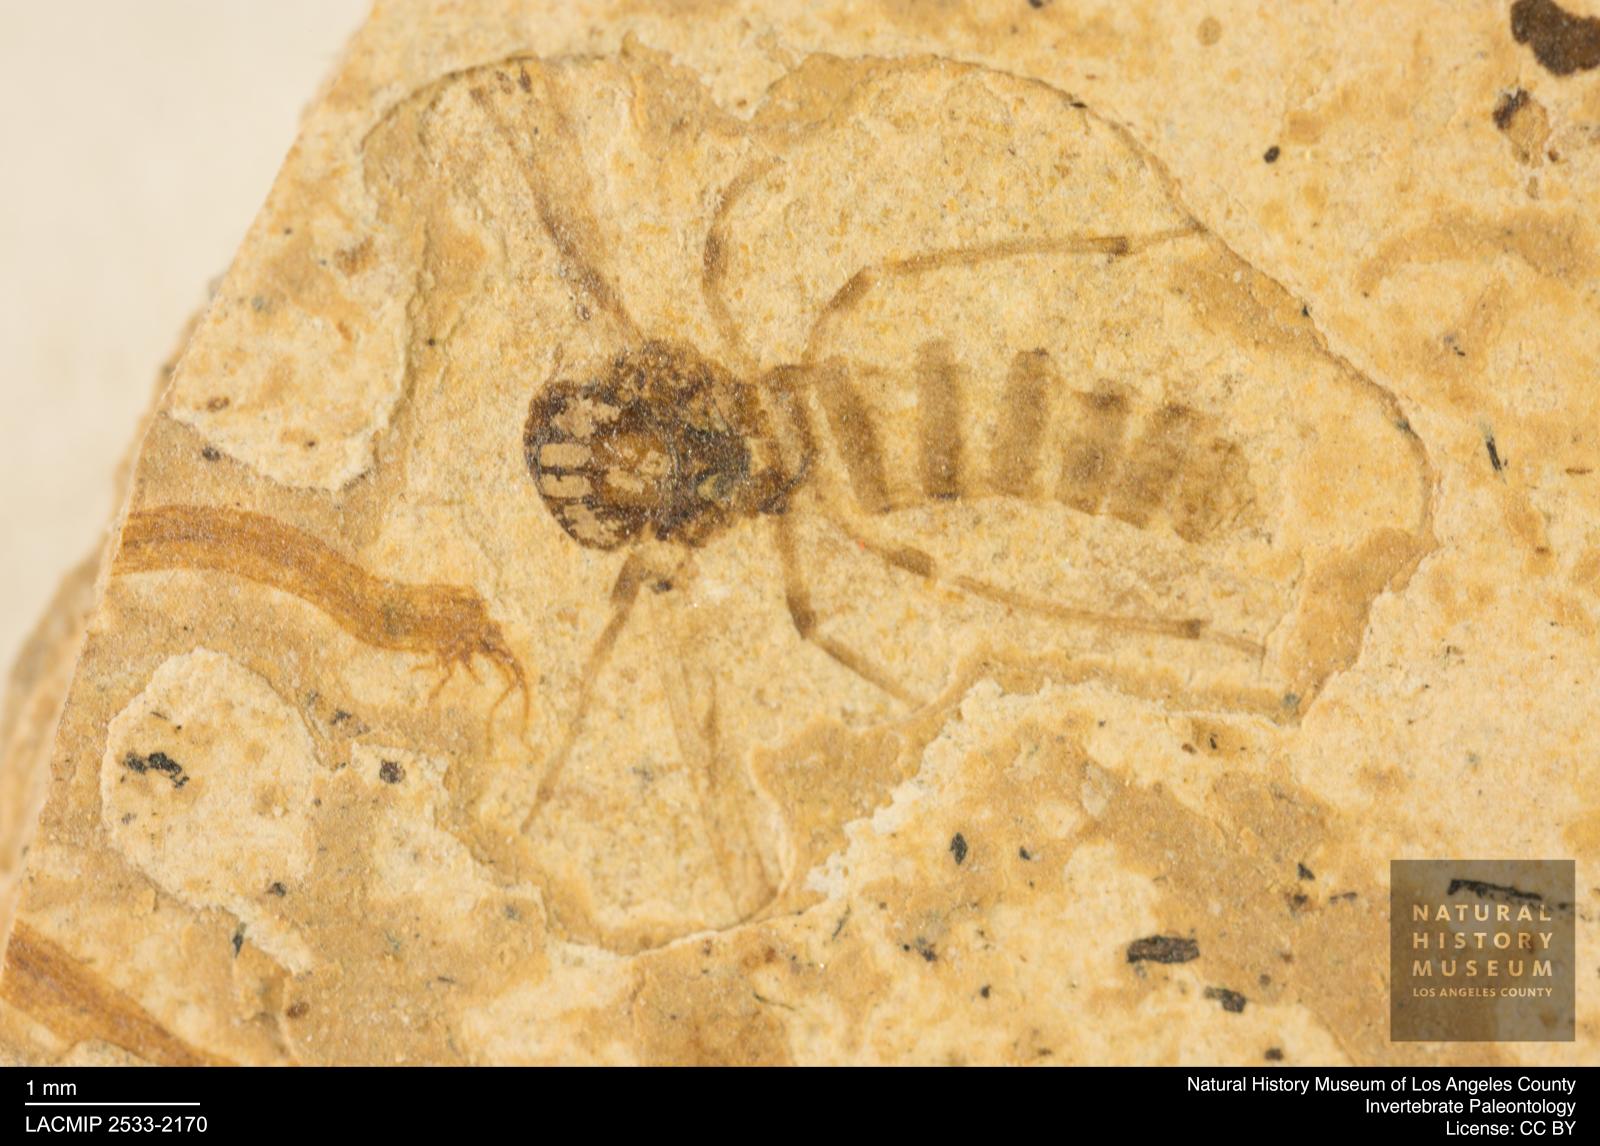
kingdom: Animalia
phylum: Arthropoda
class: Insecta
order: Diptera
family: Chironomidae
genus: Tanypus
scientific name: Tanypus dorminans
